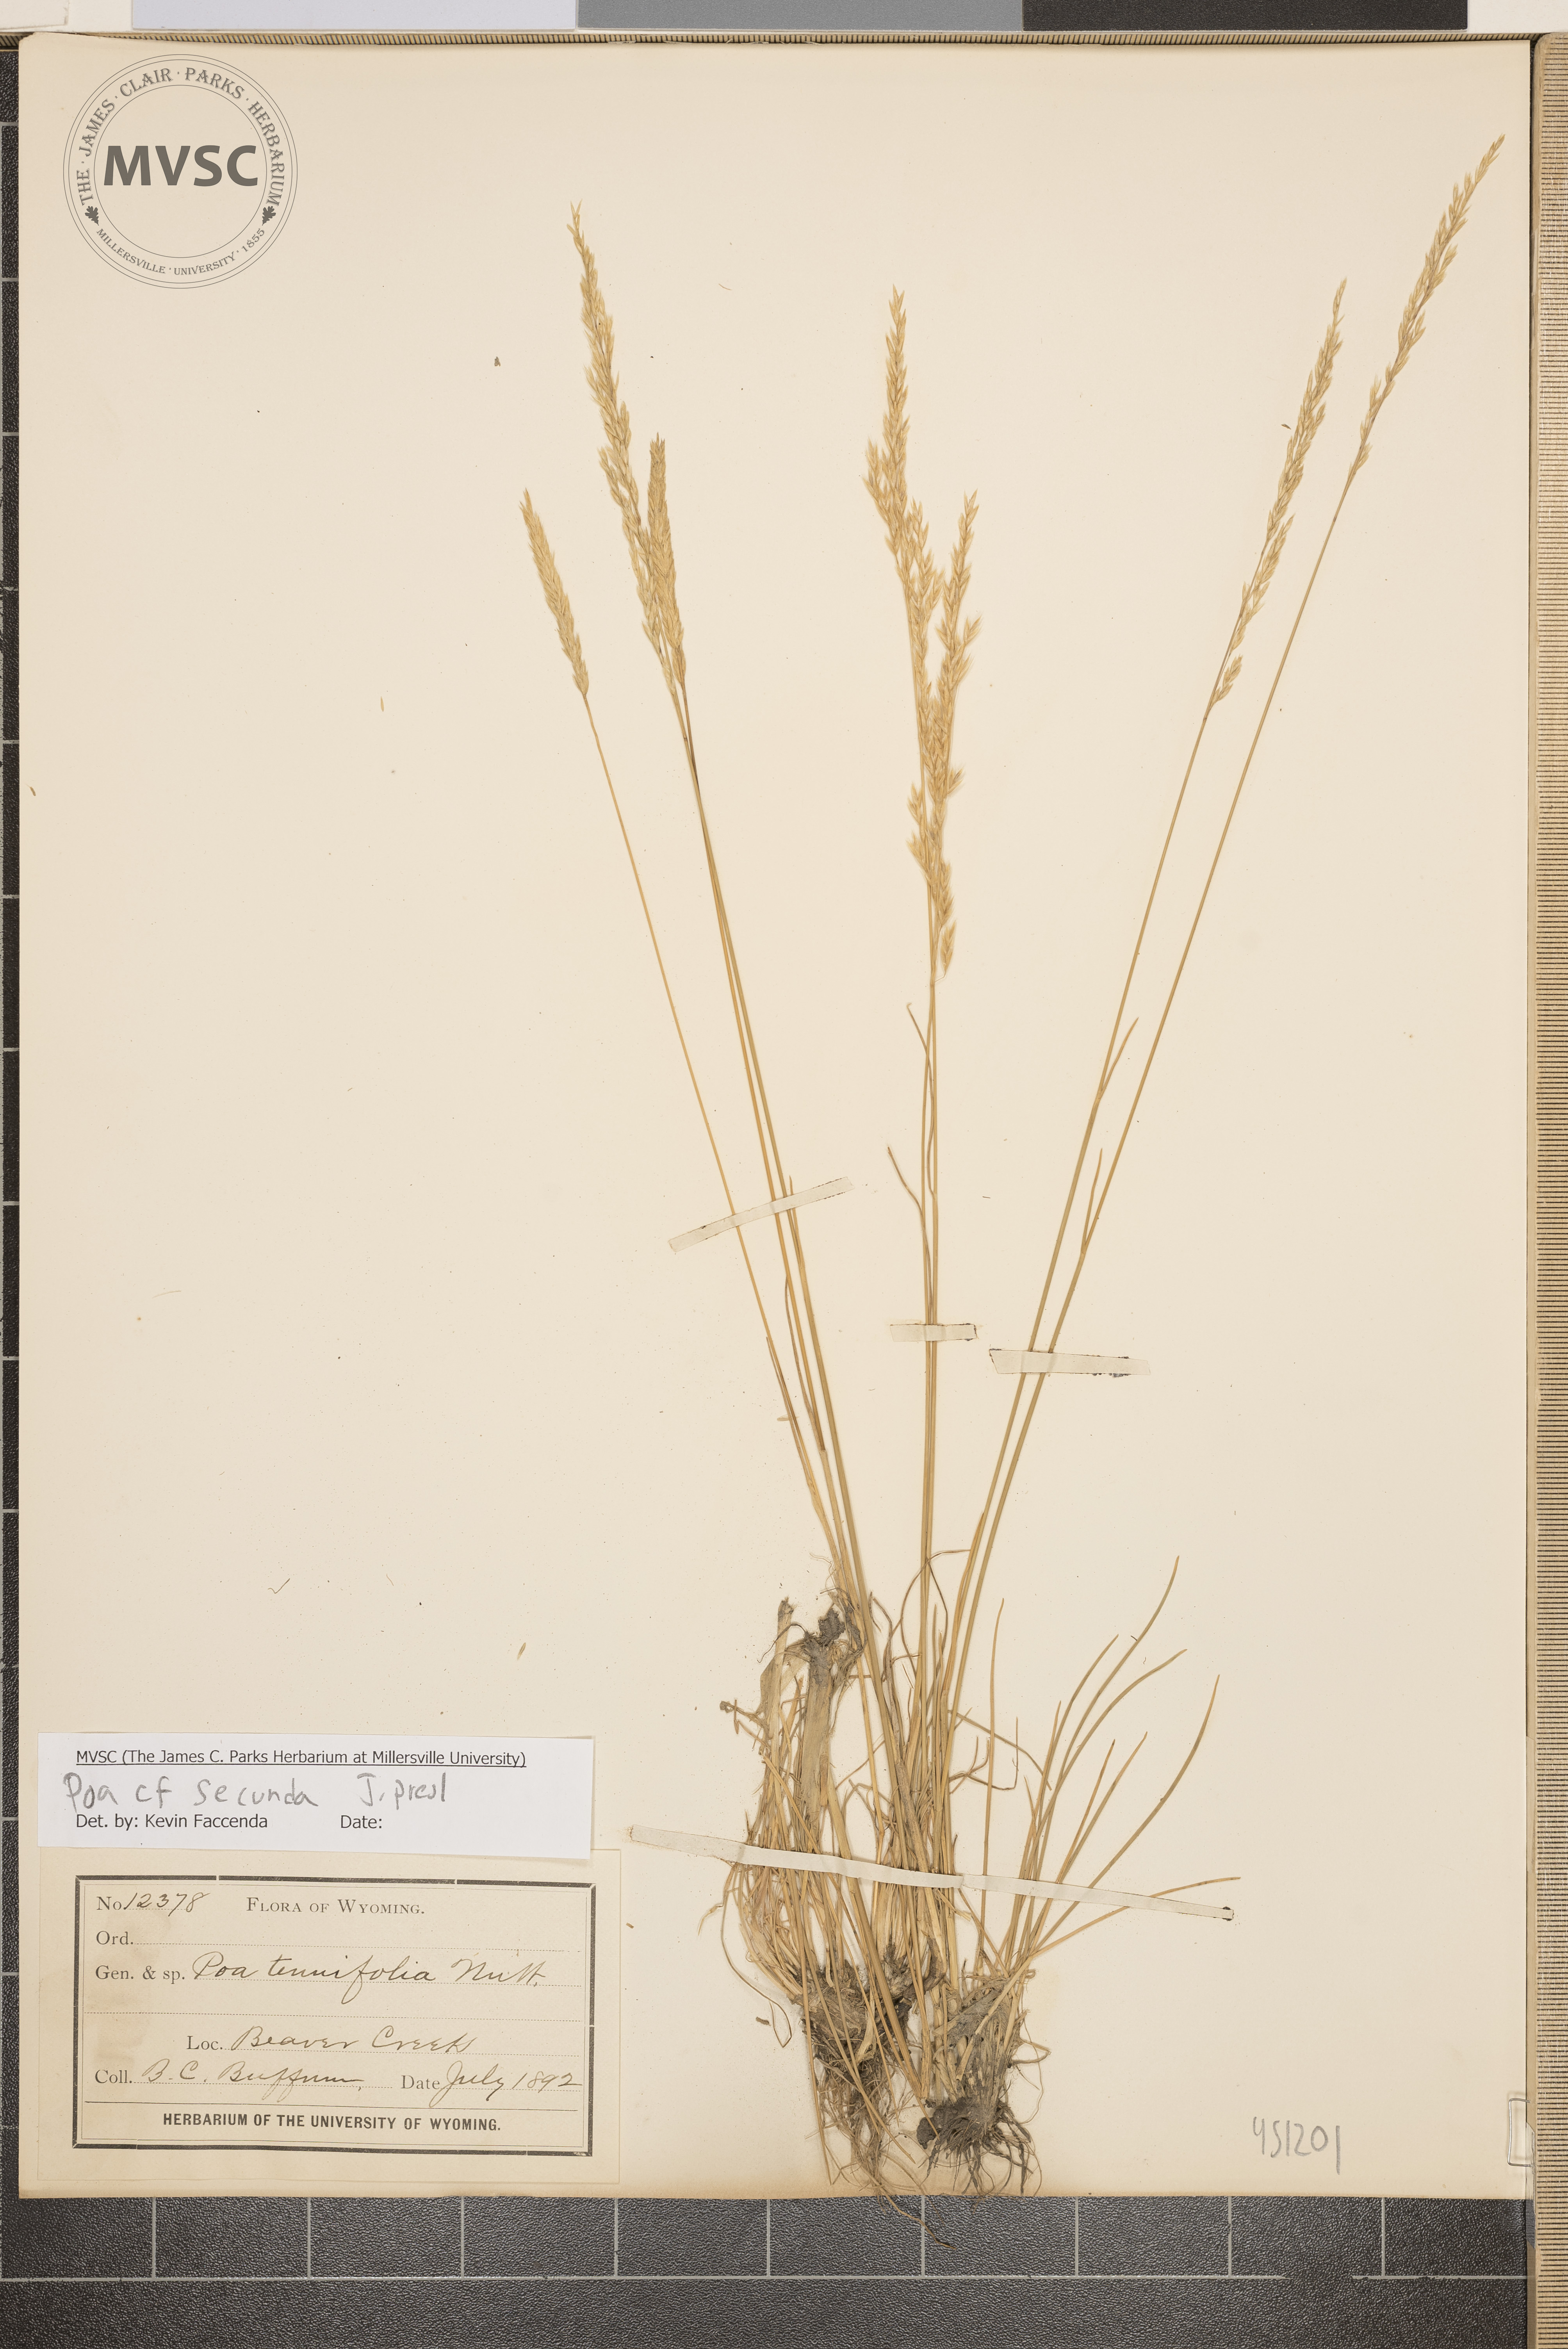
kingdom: Plantae
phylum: Tracheophyta
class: Liliopsida
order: Poales
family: Poaceae
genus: Poa
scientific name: Poa secunda
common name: Sandberg bluegrass
